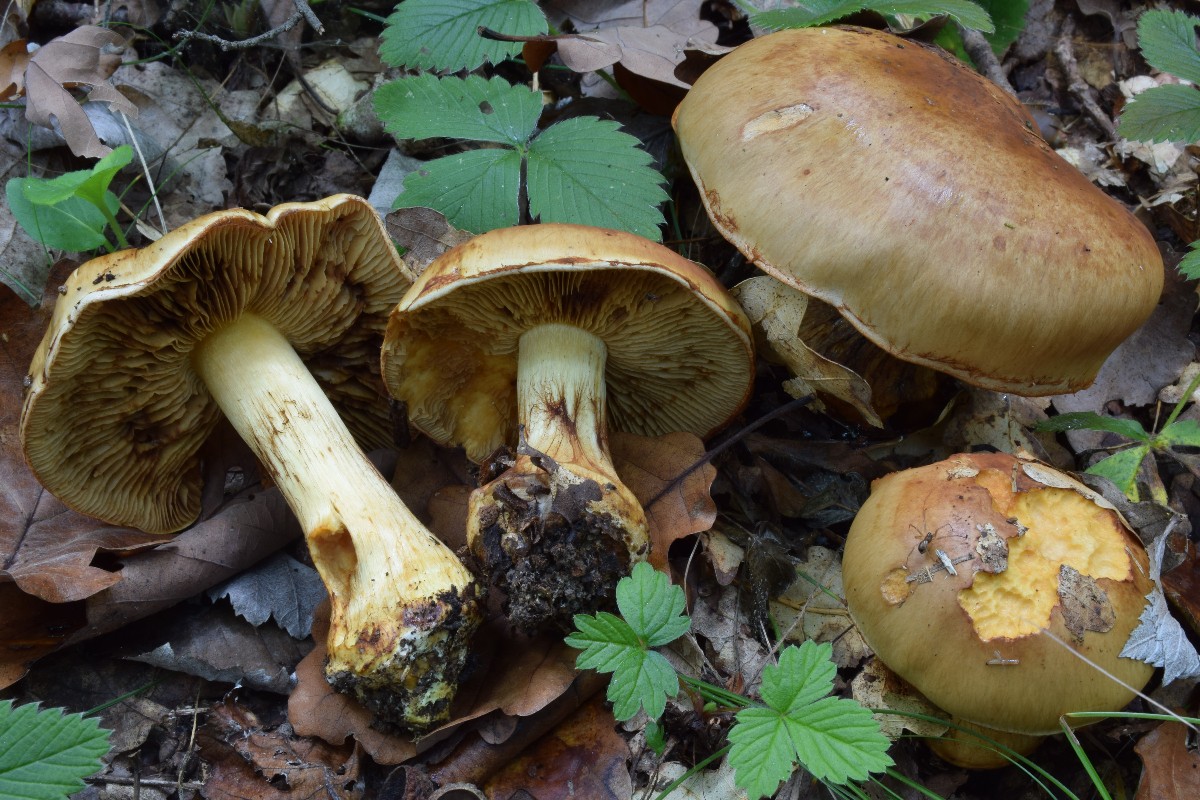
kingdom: Fungi
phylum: Basidiomycota
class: Agaricomycetes
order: Agaricales
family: Cortinariaceae
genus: Calonarius
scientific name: Calonarius quercilicis
